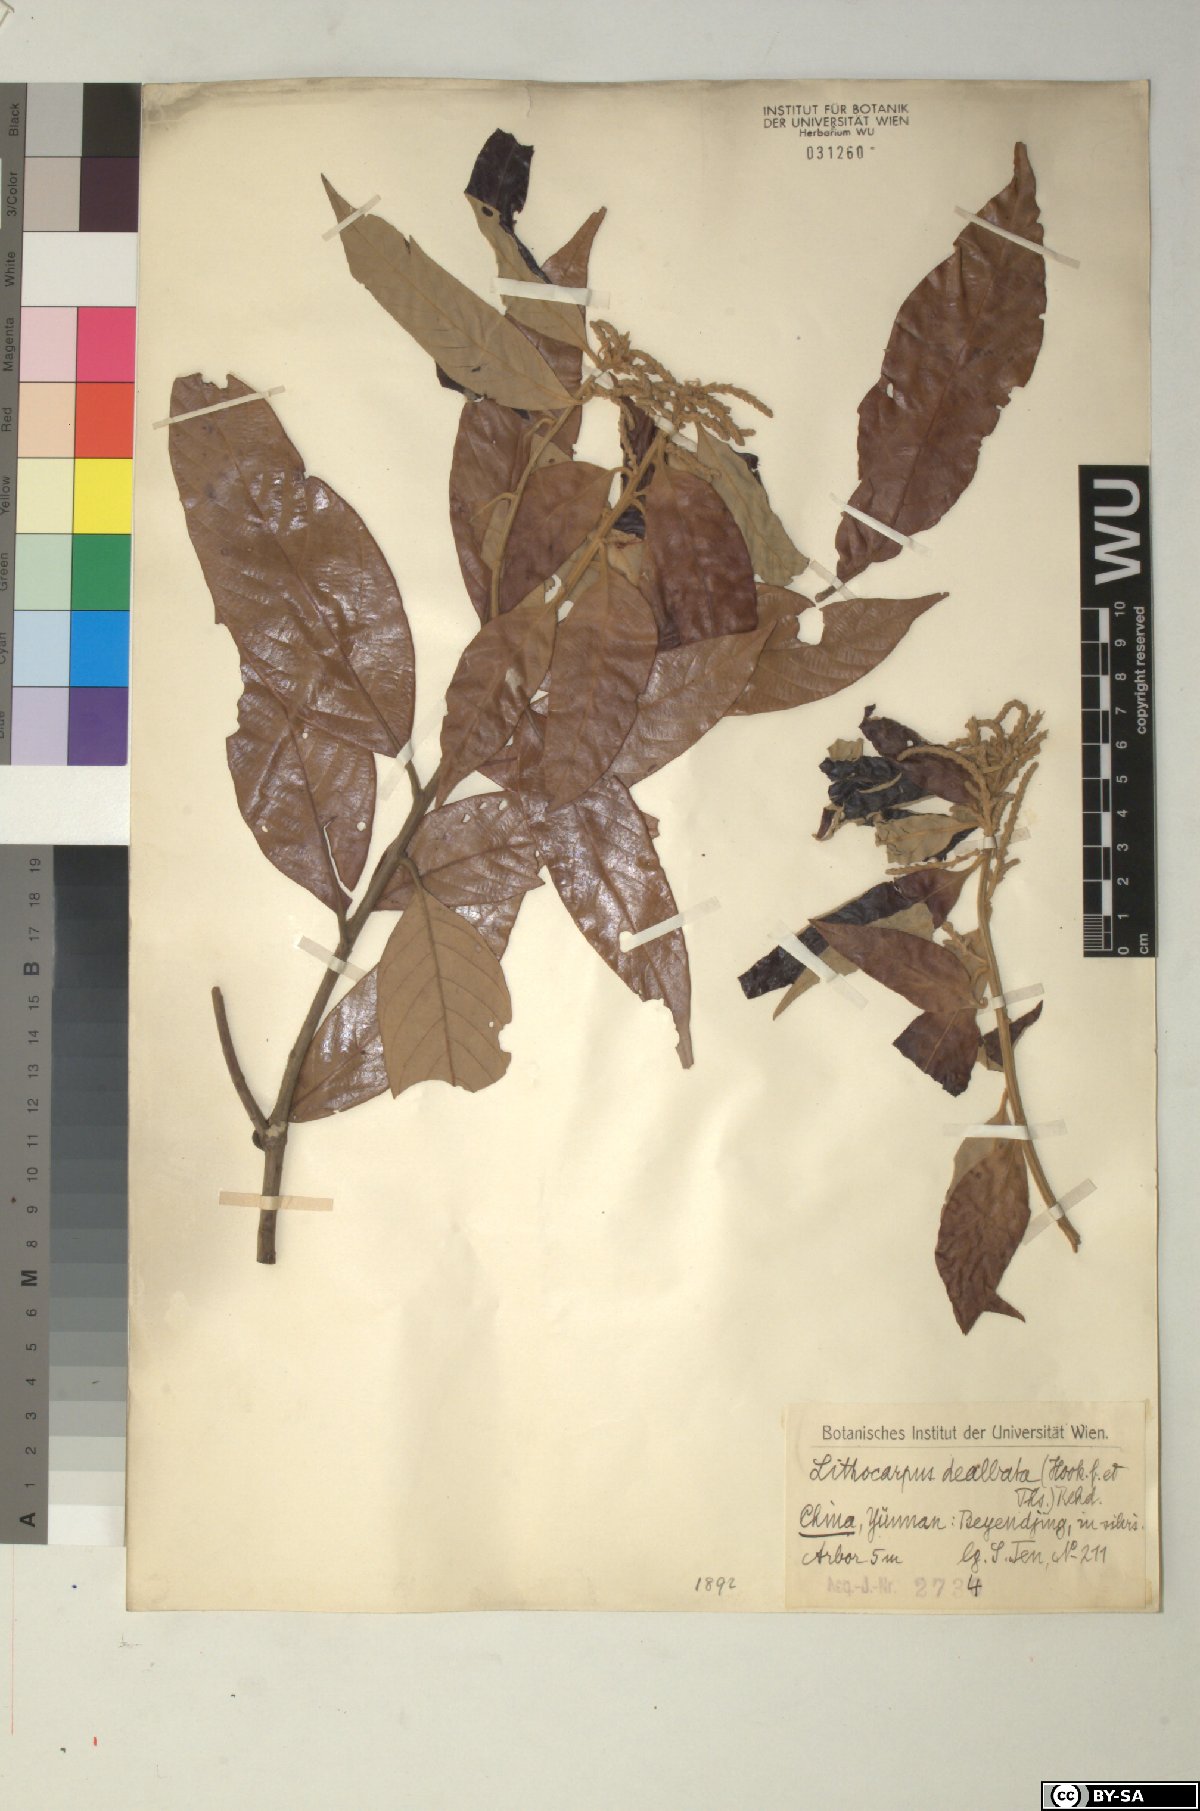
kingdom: Plantae
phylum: Tracheophyta
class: Magnoliopsida
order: Fagales
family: Fagaceae
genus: Lithocarpus
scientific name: Lithocarpus dealbatus
